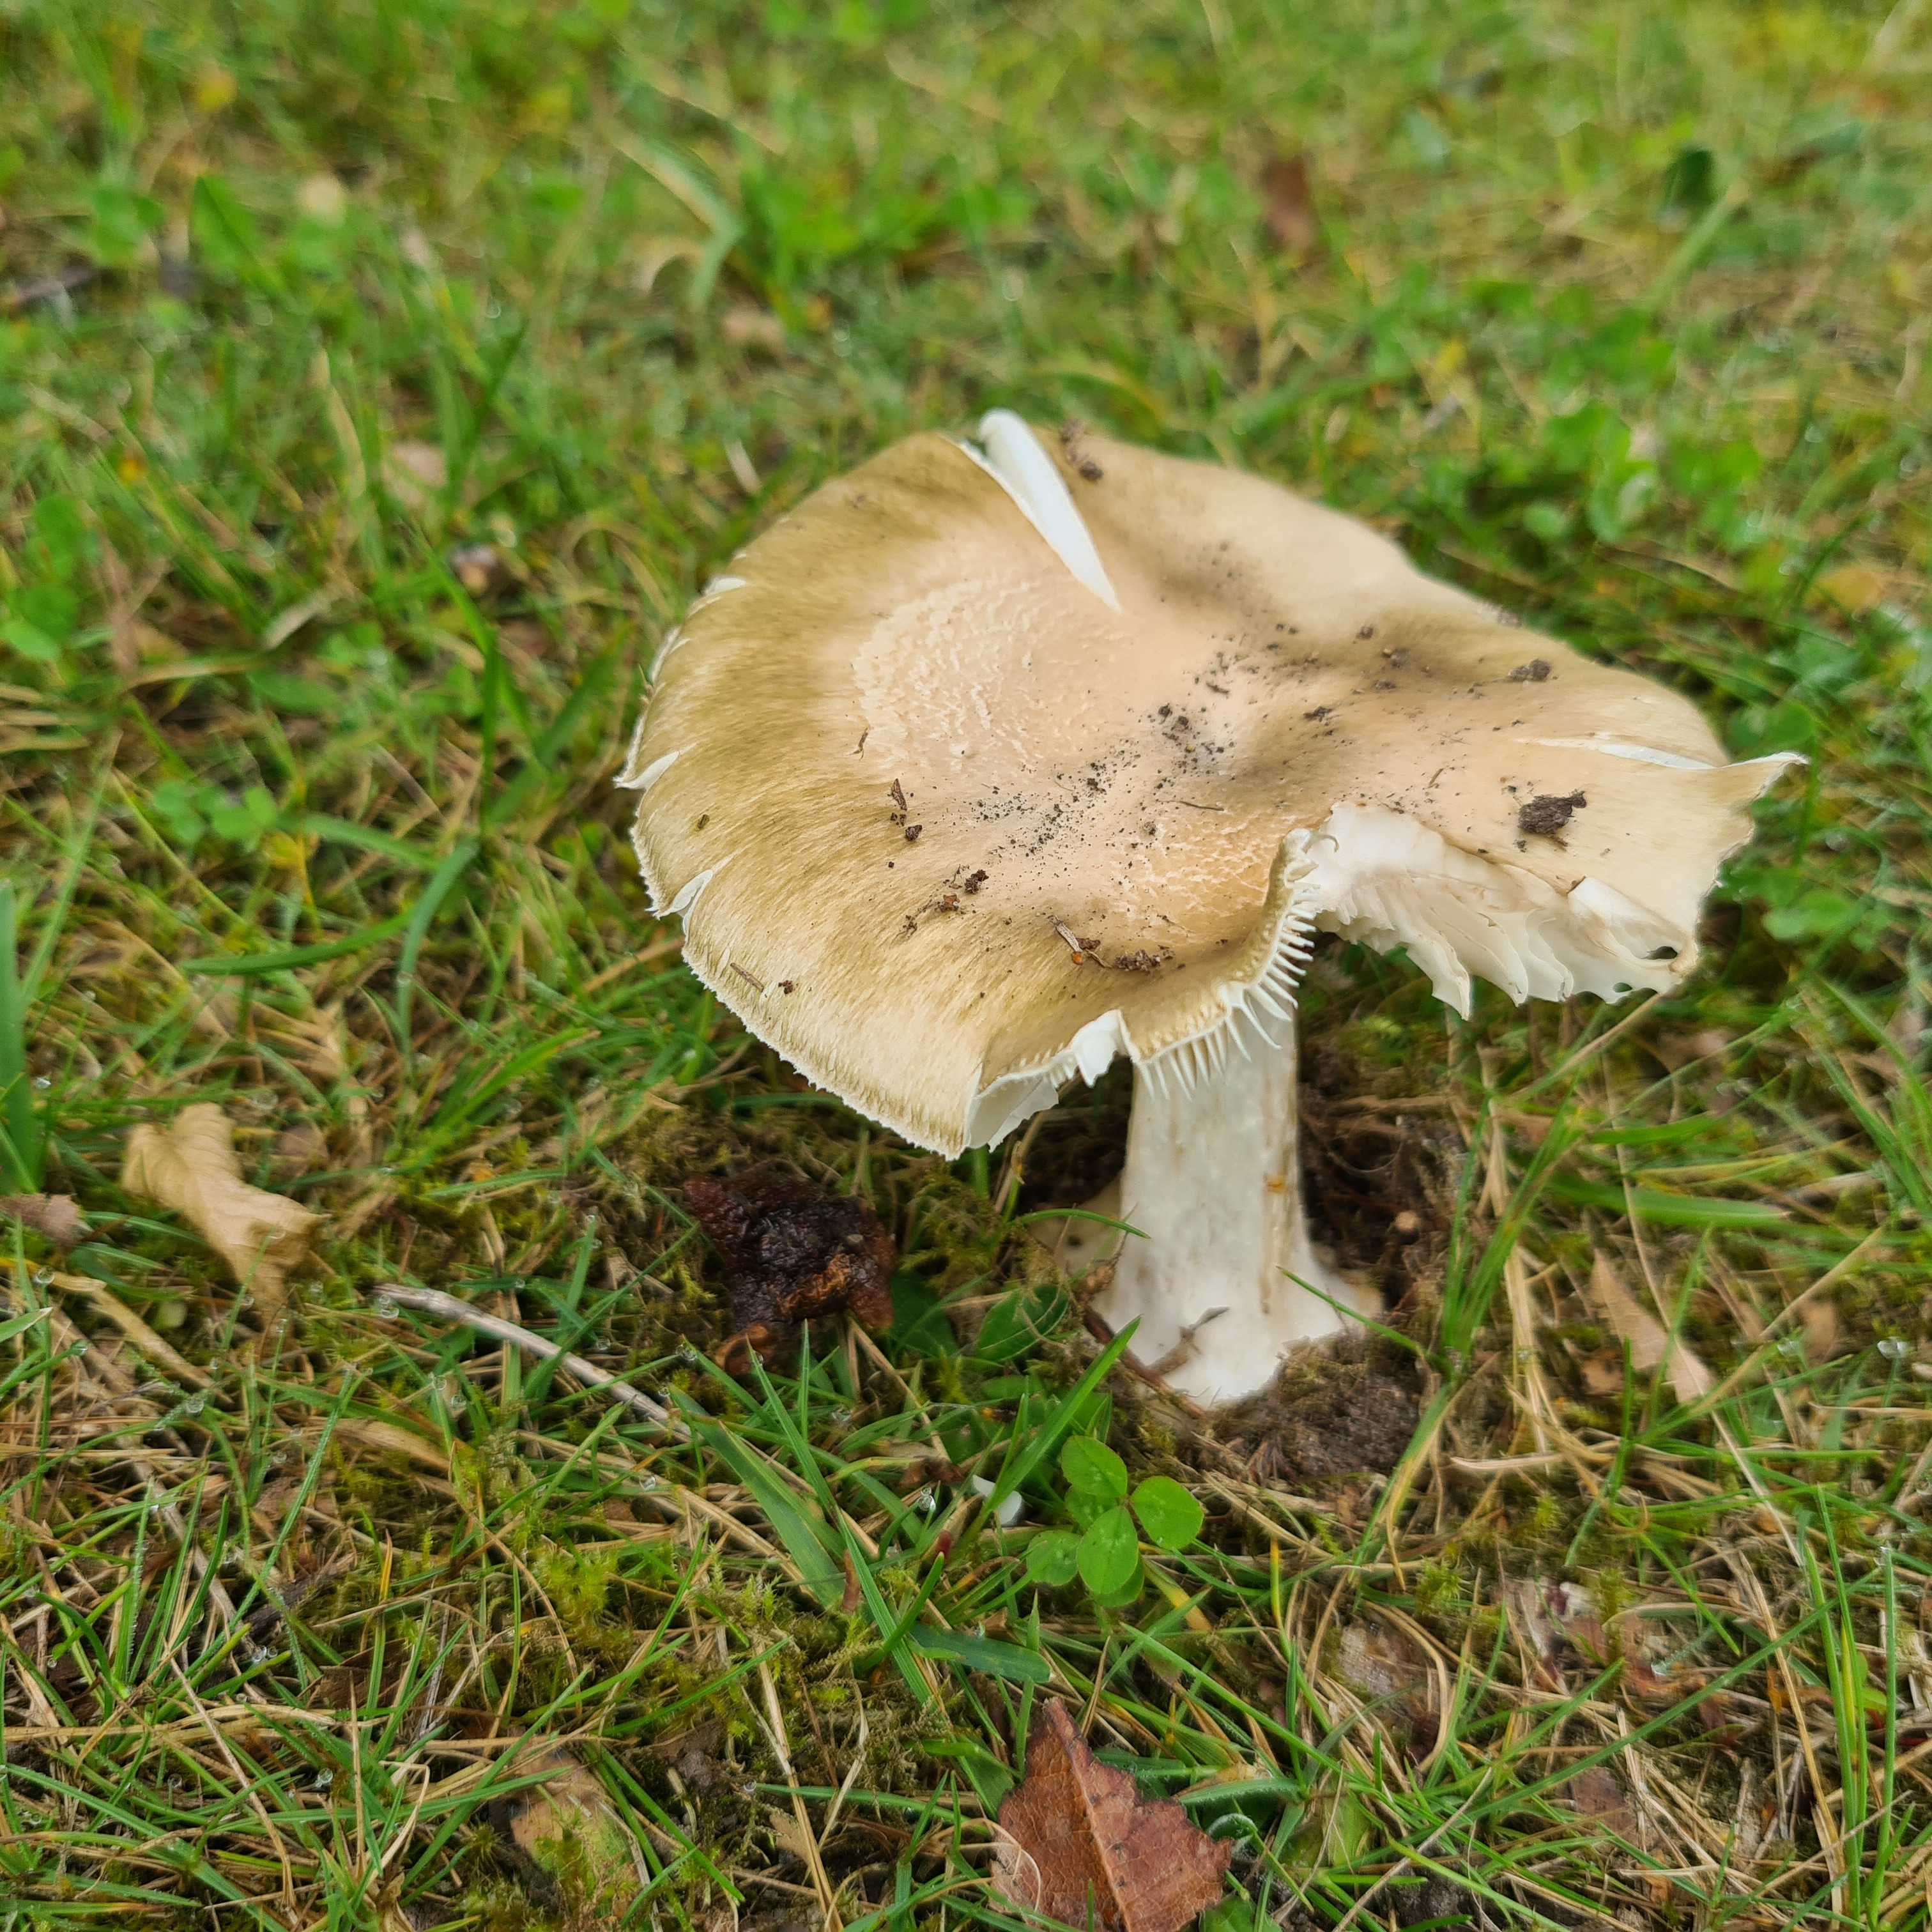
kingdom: Fungi
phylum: Basidiomycota
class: Agaricomycetes
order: Agaricales
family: Amanitaceae
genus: Amanita
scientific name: Amanita phalloides
